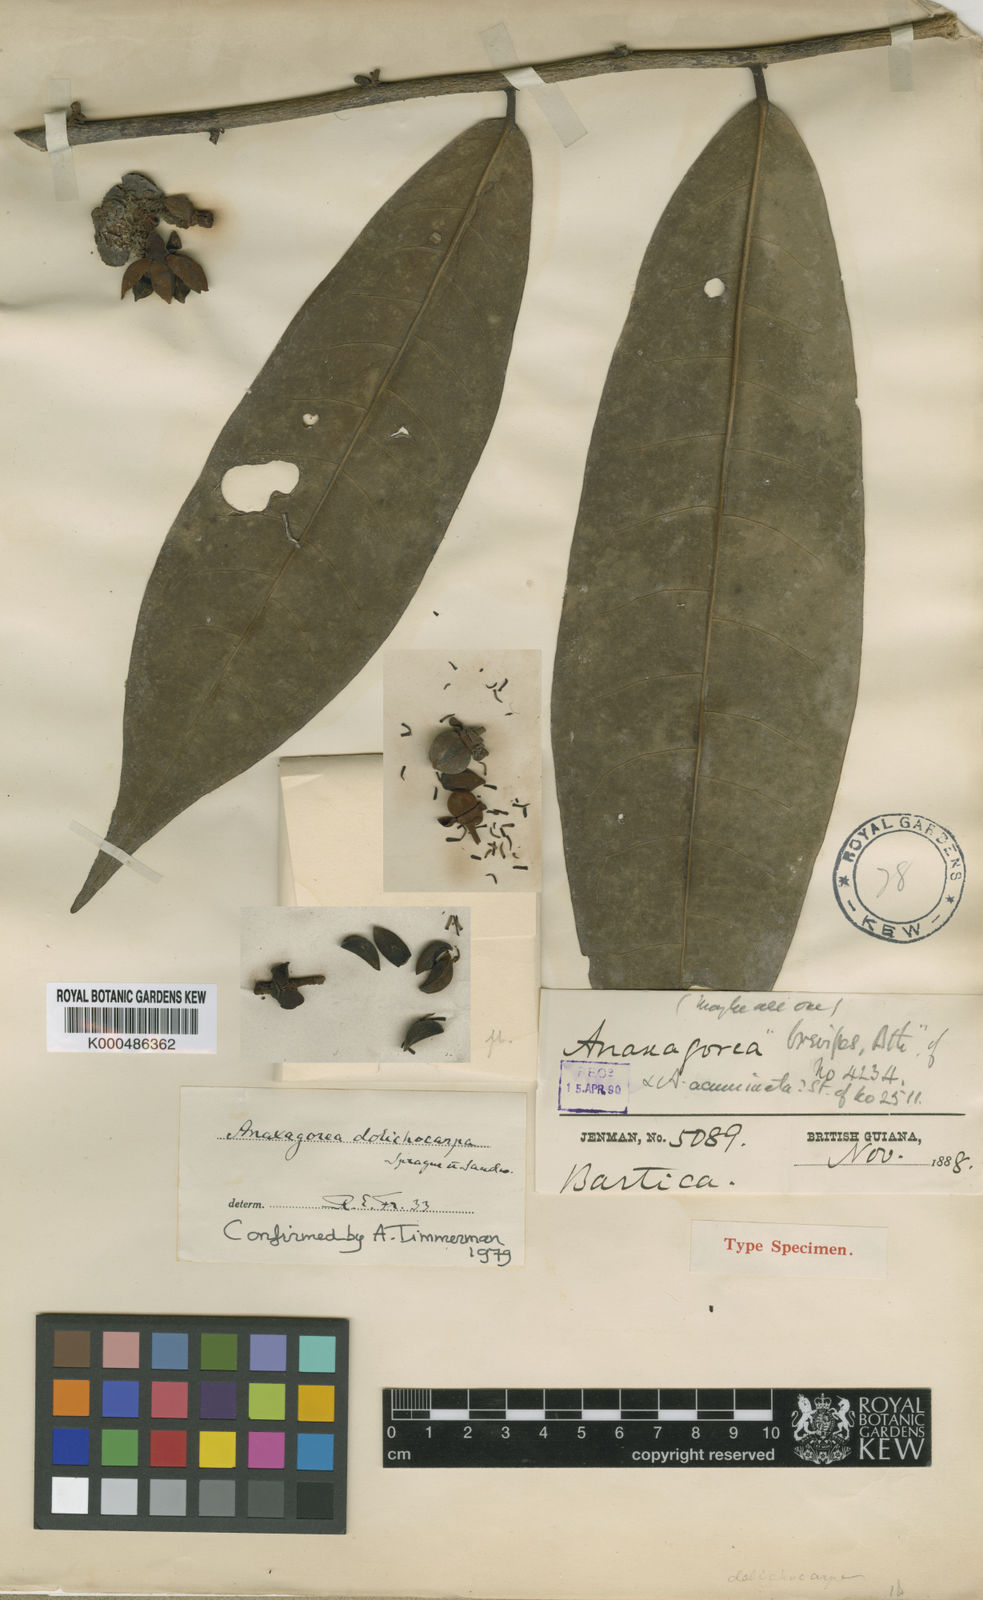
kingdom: Plantae
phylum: Tracheophyta
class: Magnoliopsida
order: Magnoliales
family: Annonaceae
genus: Anaxagorea
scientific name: Anaxagorea dolichocarpa
